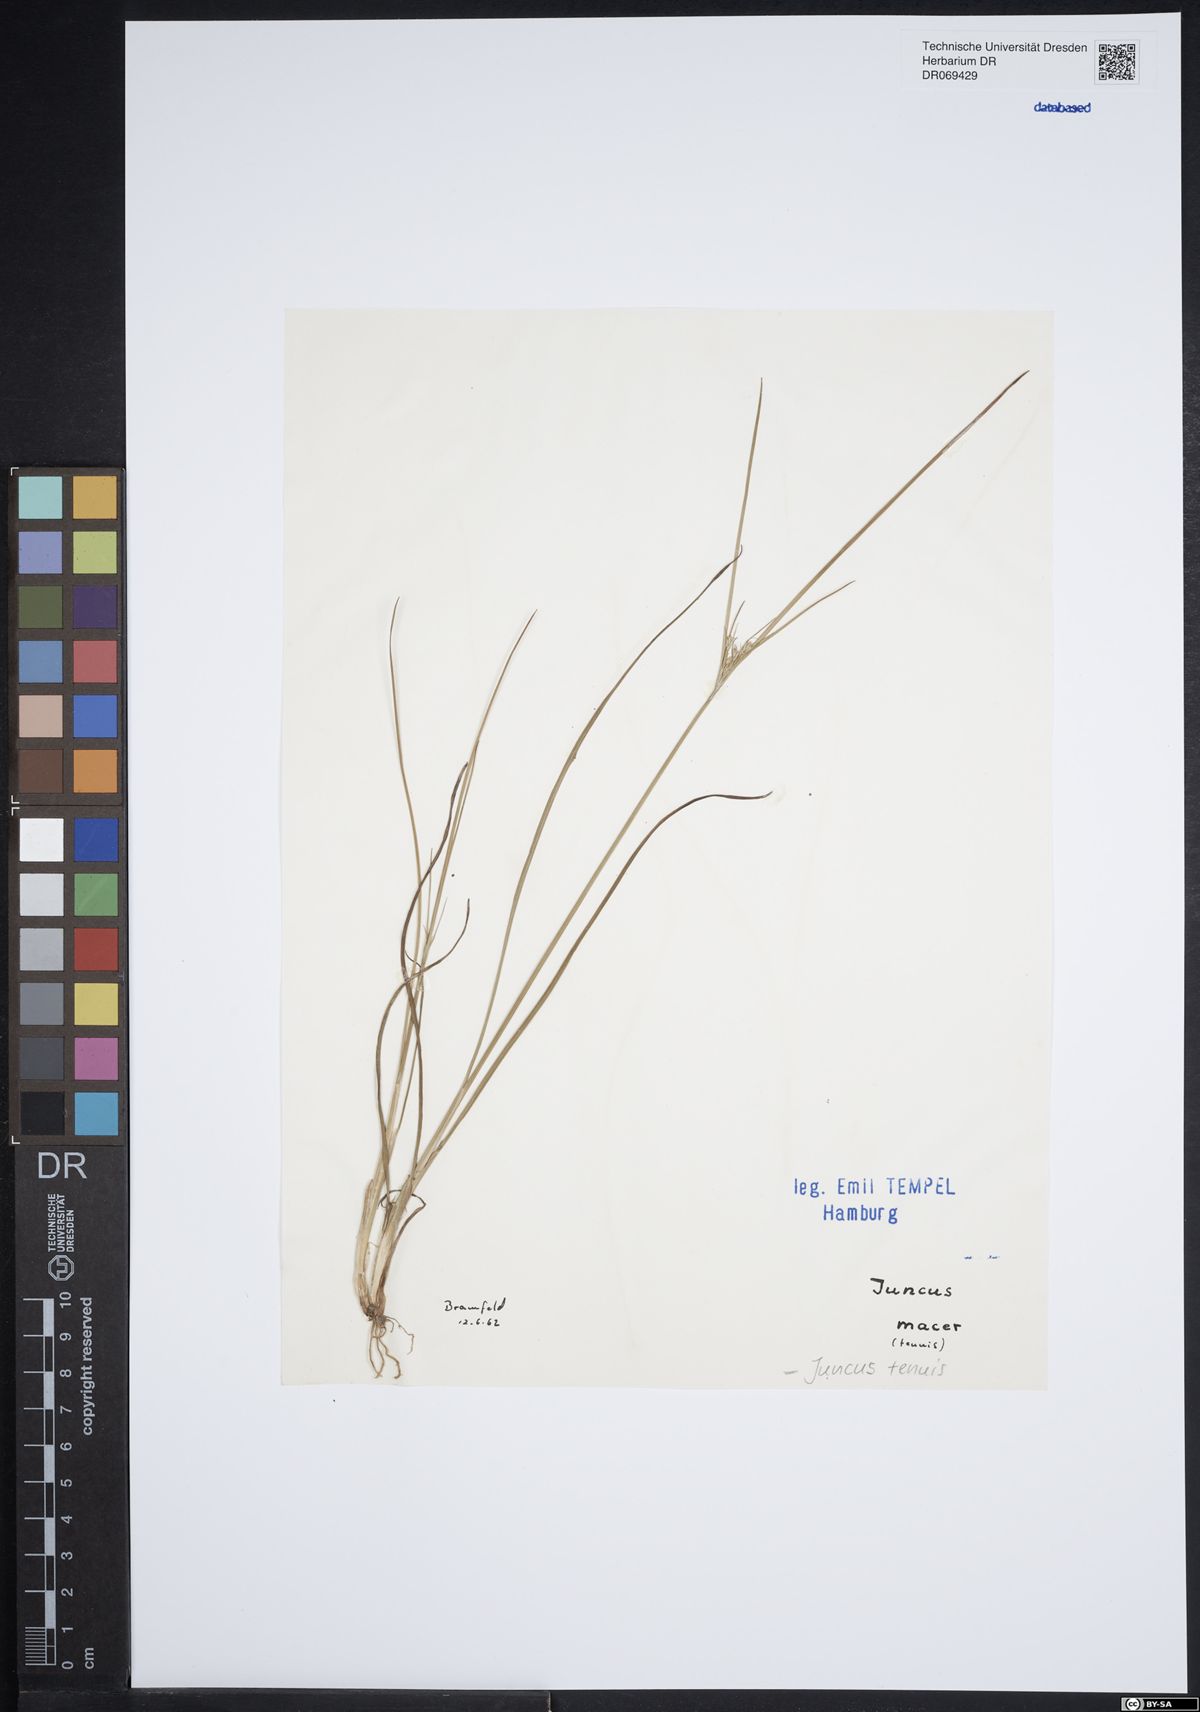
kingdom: Plantae
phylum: Tracheophyta
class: Liliopsida
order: Poales
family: Juncaceae
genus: Juncus
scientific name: Juncus tenuis
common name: Slender rush
